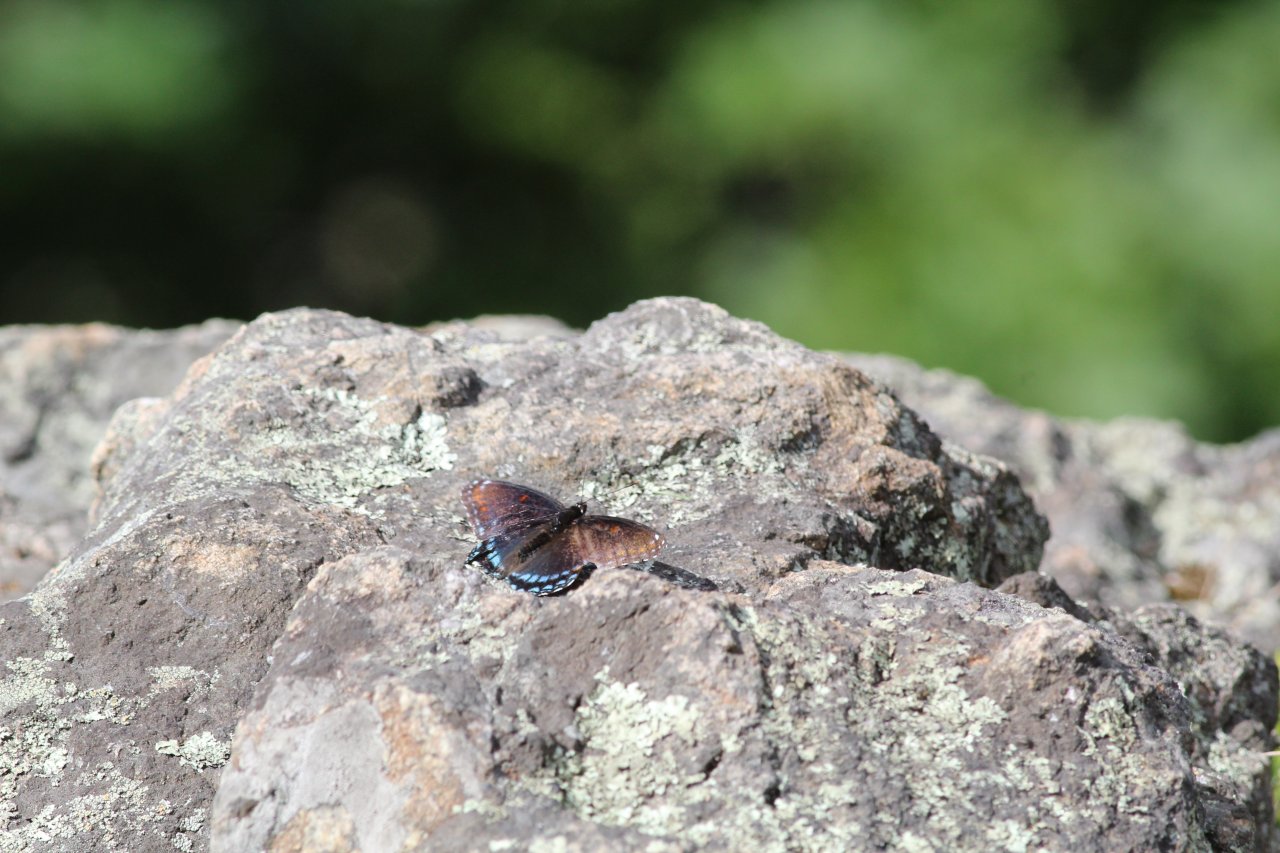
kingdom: Animalia
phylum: Arthropoda
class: Insecta
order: Lepidoptera
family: Nymphalidae
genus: Limenitis
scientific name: Limenitis arthemis
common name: Red-spotted Admiral
